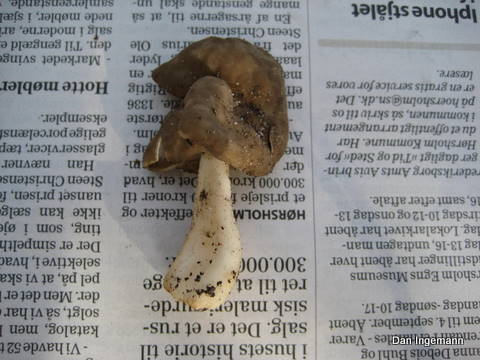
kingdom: Fungi
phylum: Ascomycota
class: Pezizomycetes
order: Pezizales
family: Helvellaceae
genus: Helvella
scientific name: Helvella
